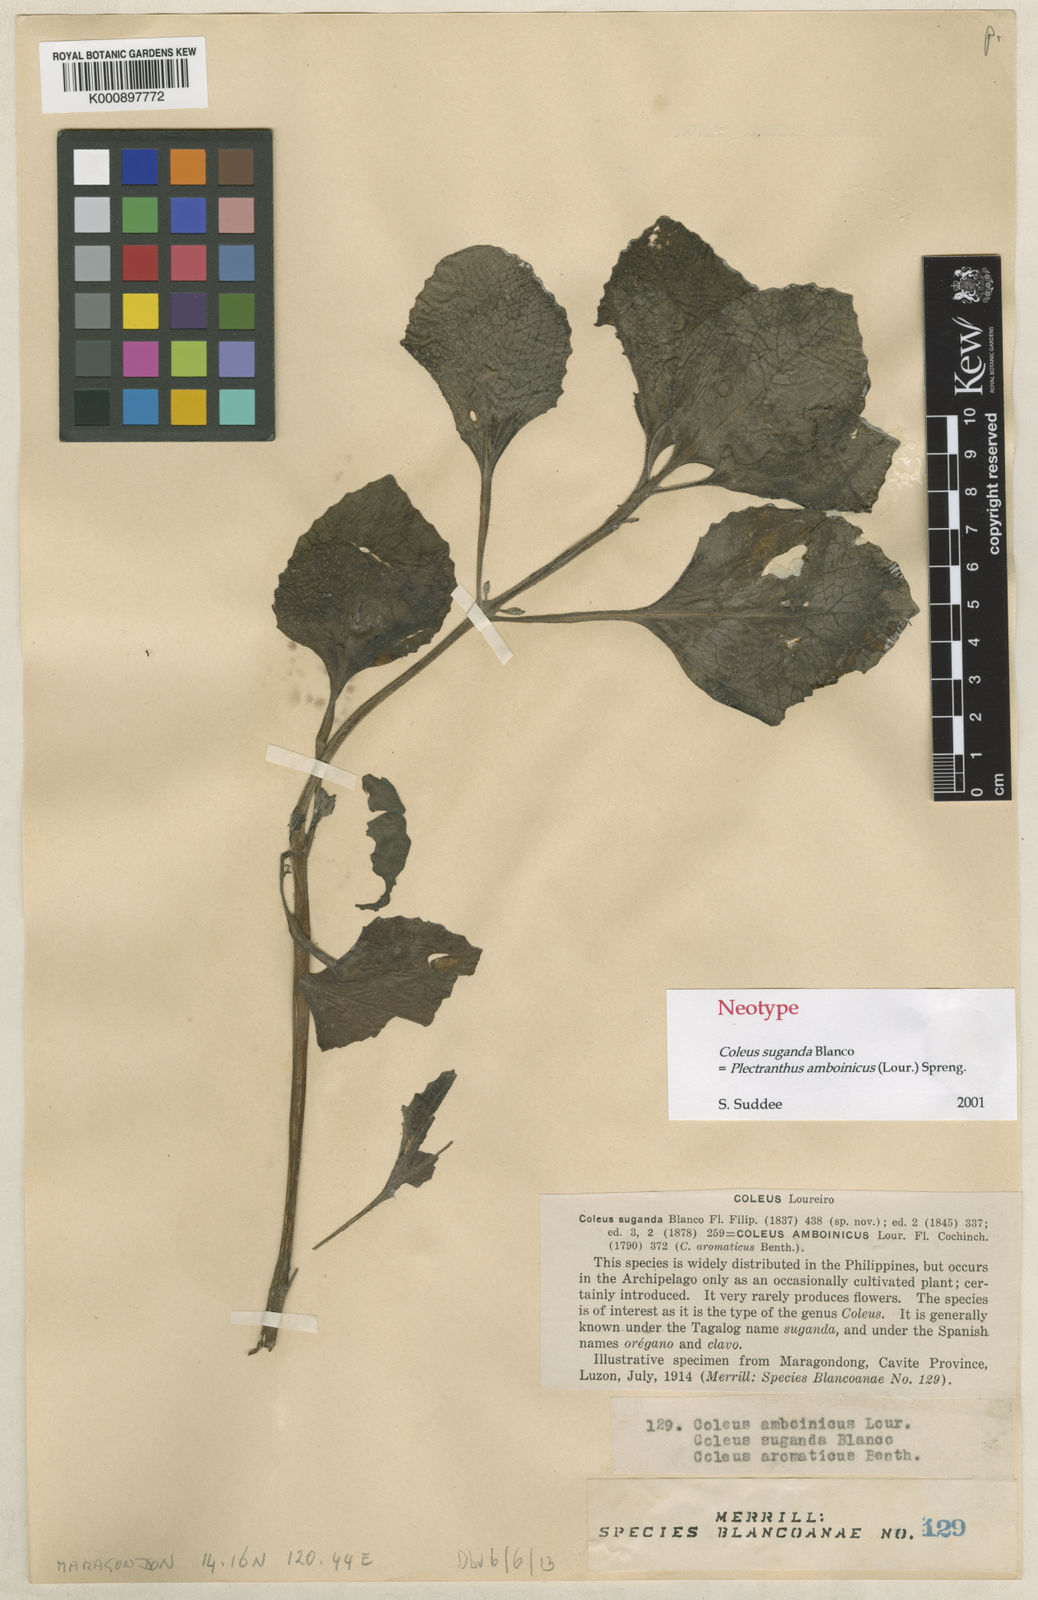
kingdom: Plantae
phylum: Tracheophyta
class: Magnoliopsida
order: Lamiales
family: Lamiaceae
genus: Coleus
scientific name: Coleus amboinicus
